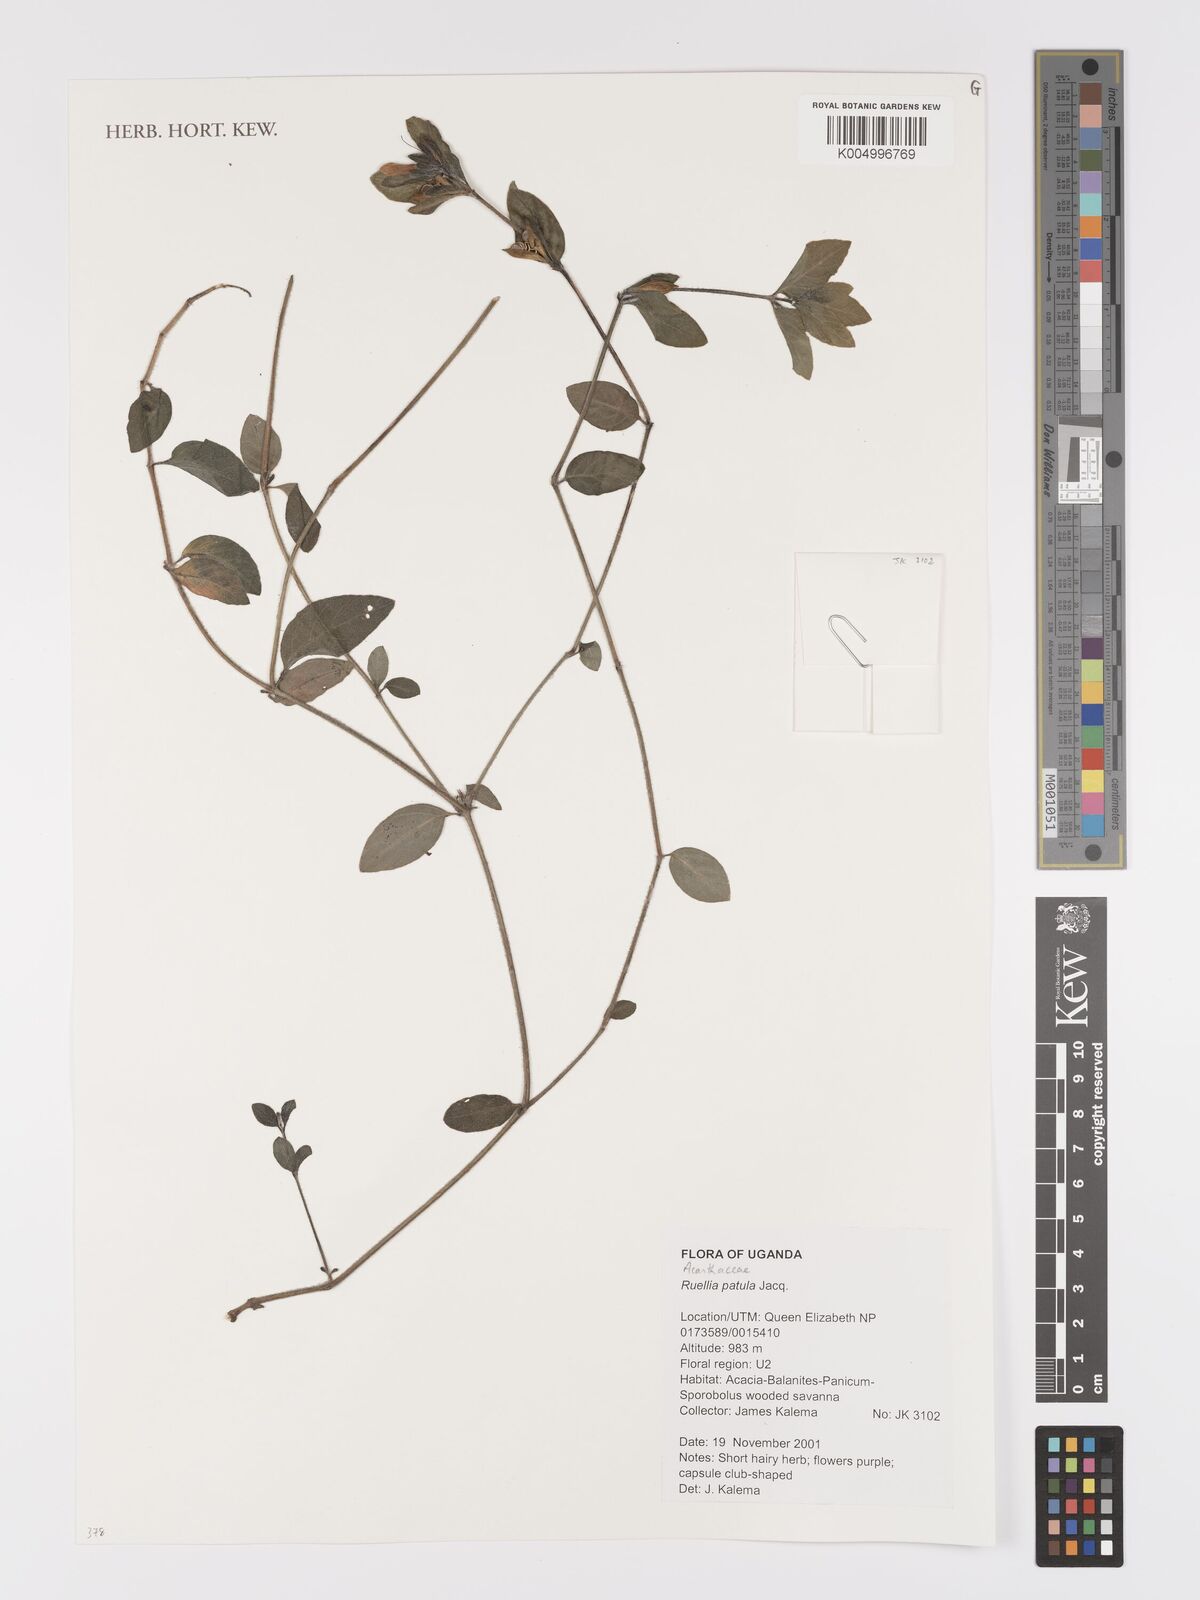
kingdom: Plantae
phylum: Tracheophyta
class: Magnoliopsida
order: Lamiales
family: Acanthaceae
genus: Ruellia
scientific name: Ruellia patula
